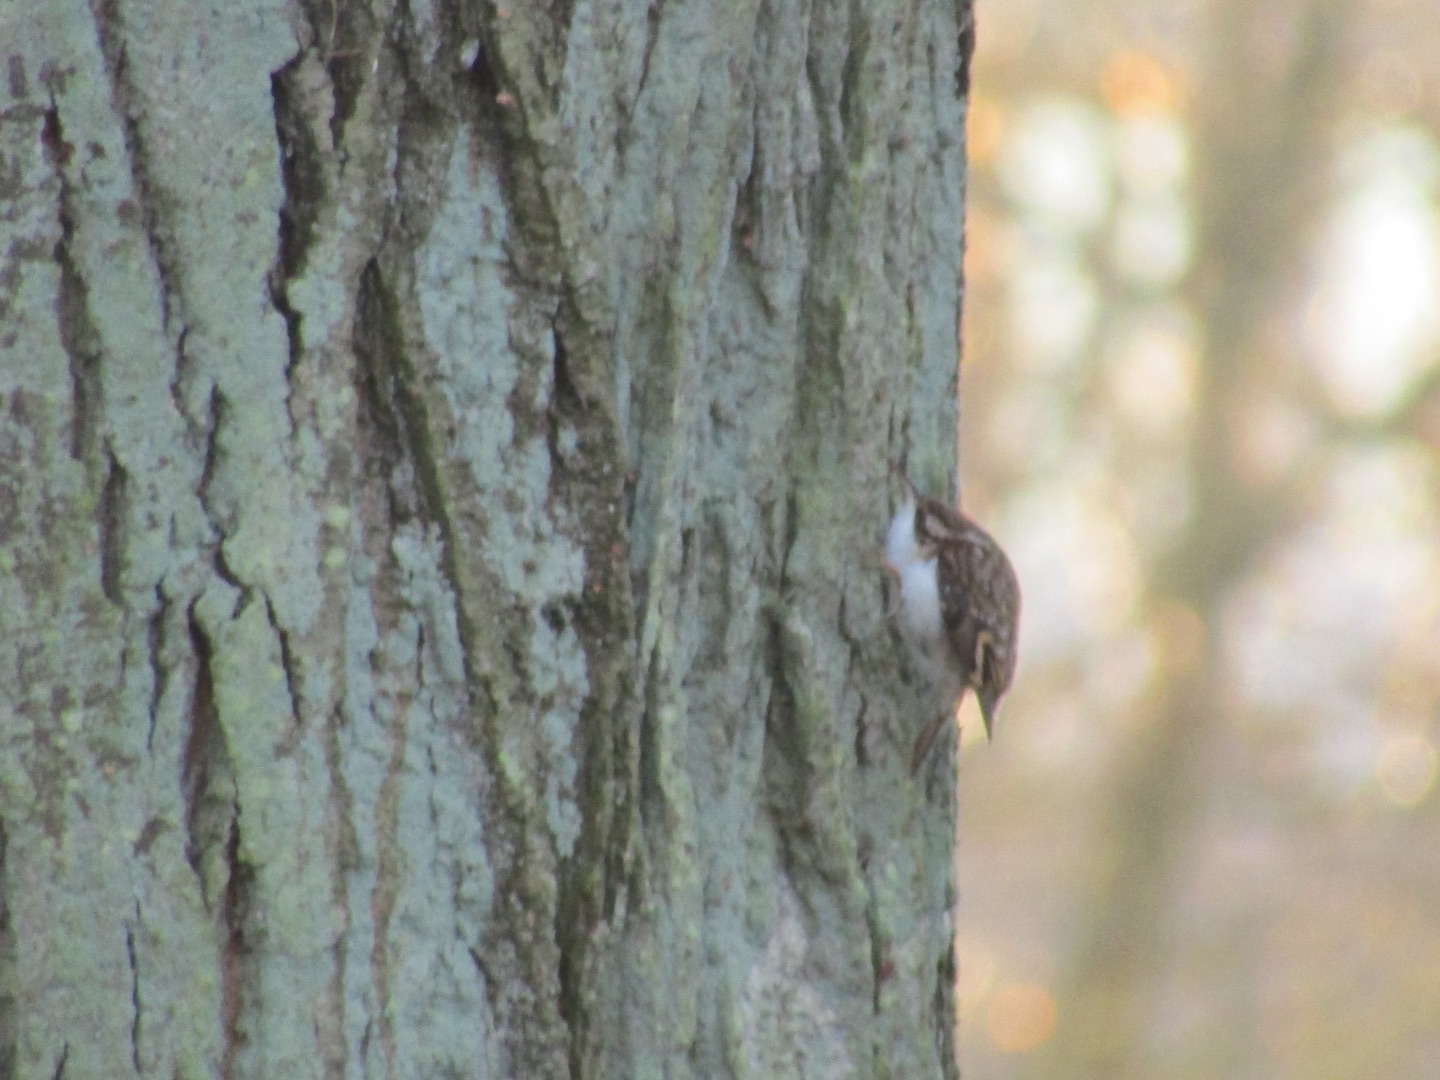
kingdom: Animalia
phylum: Chordata
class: Aves
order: Passeriformes
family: Certhiidae
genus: Certhia
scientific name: Certhia familiaris
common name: Træløber
